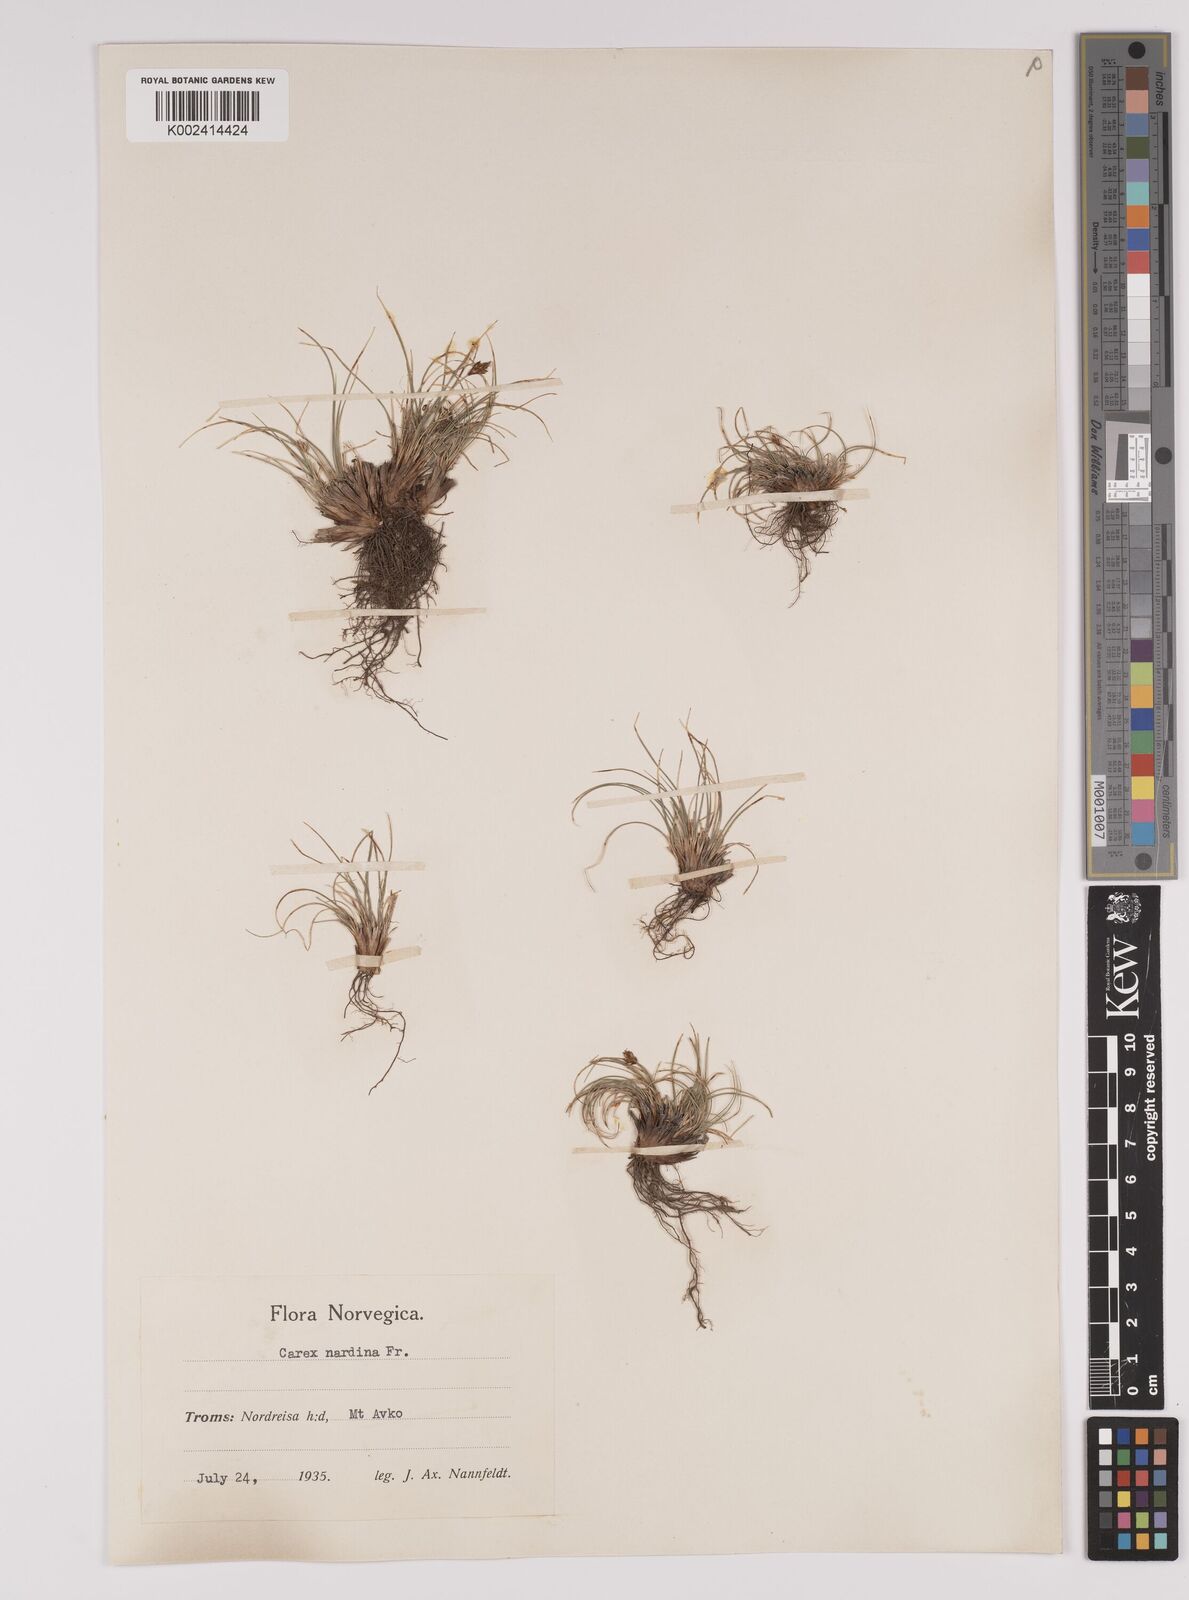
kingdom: Plantae
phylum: Tracheophyta
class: Liliopsida
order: Poales
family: Cyperaceae
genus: Carex
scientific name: Carex nardina
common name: Nard sedge
